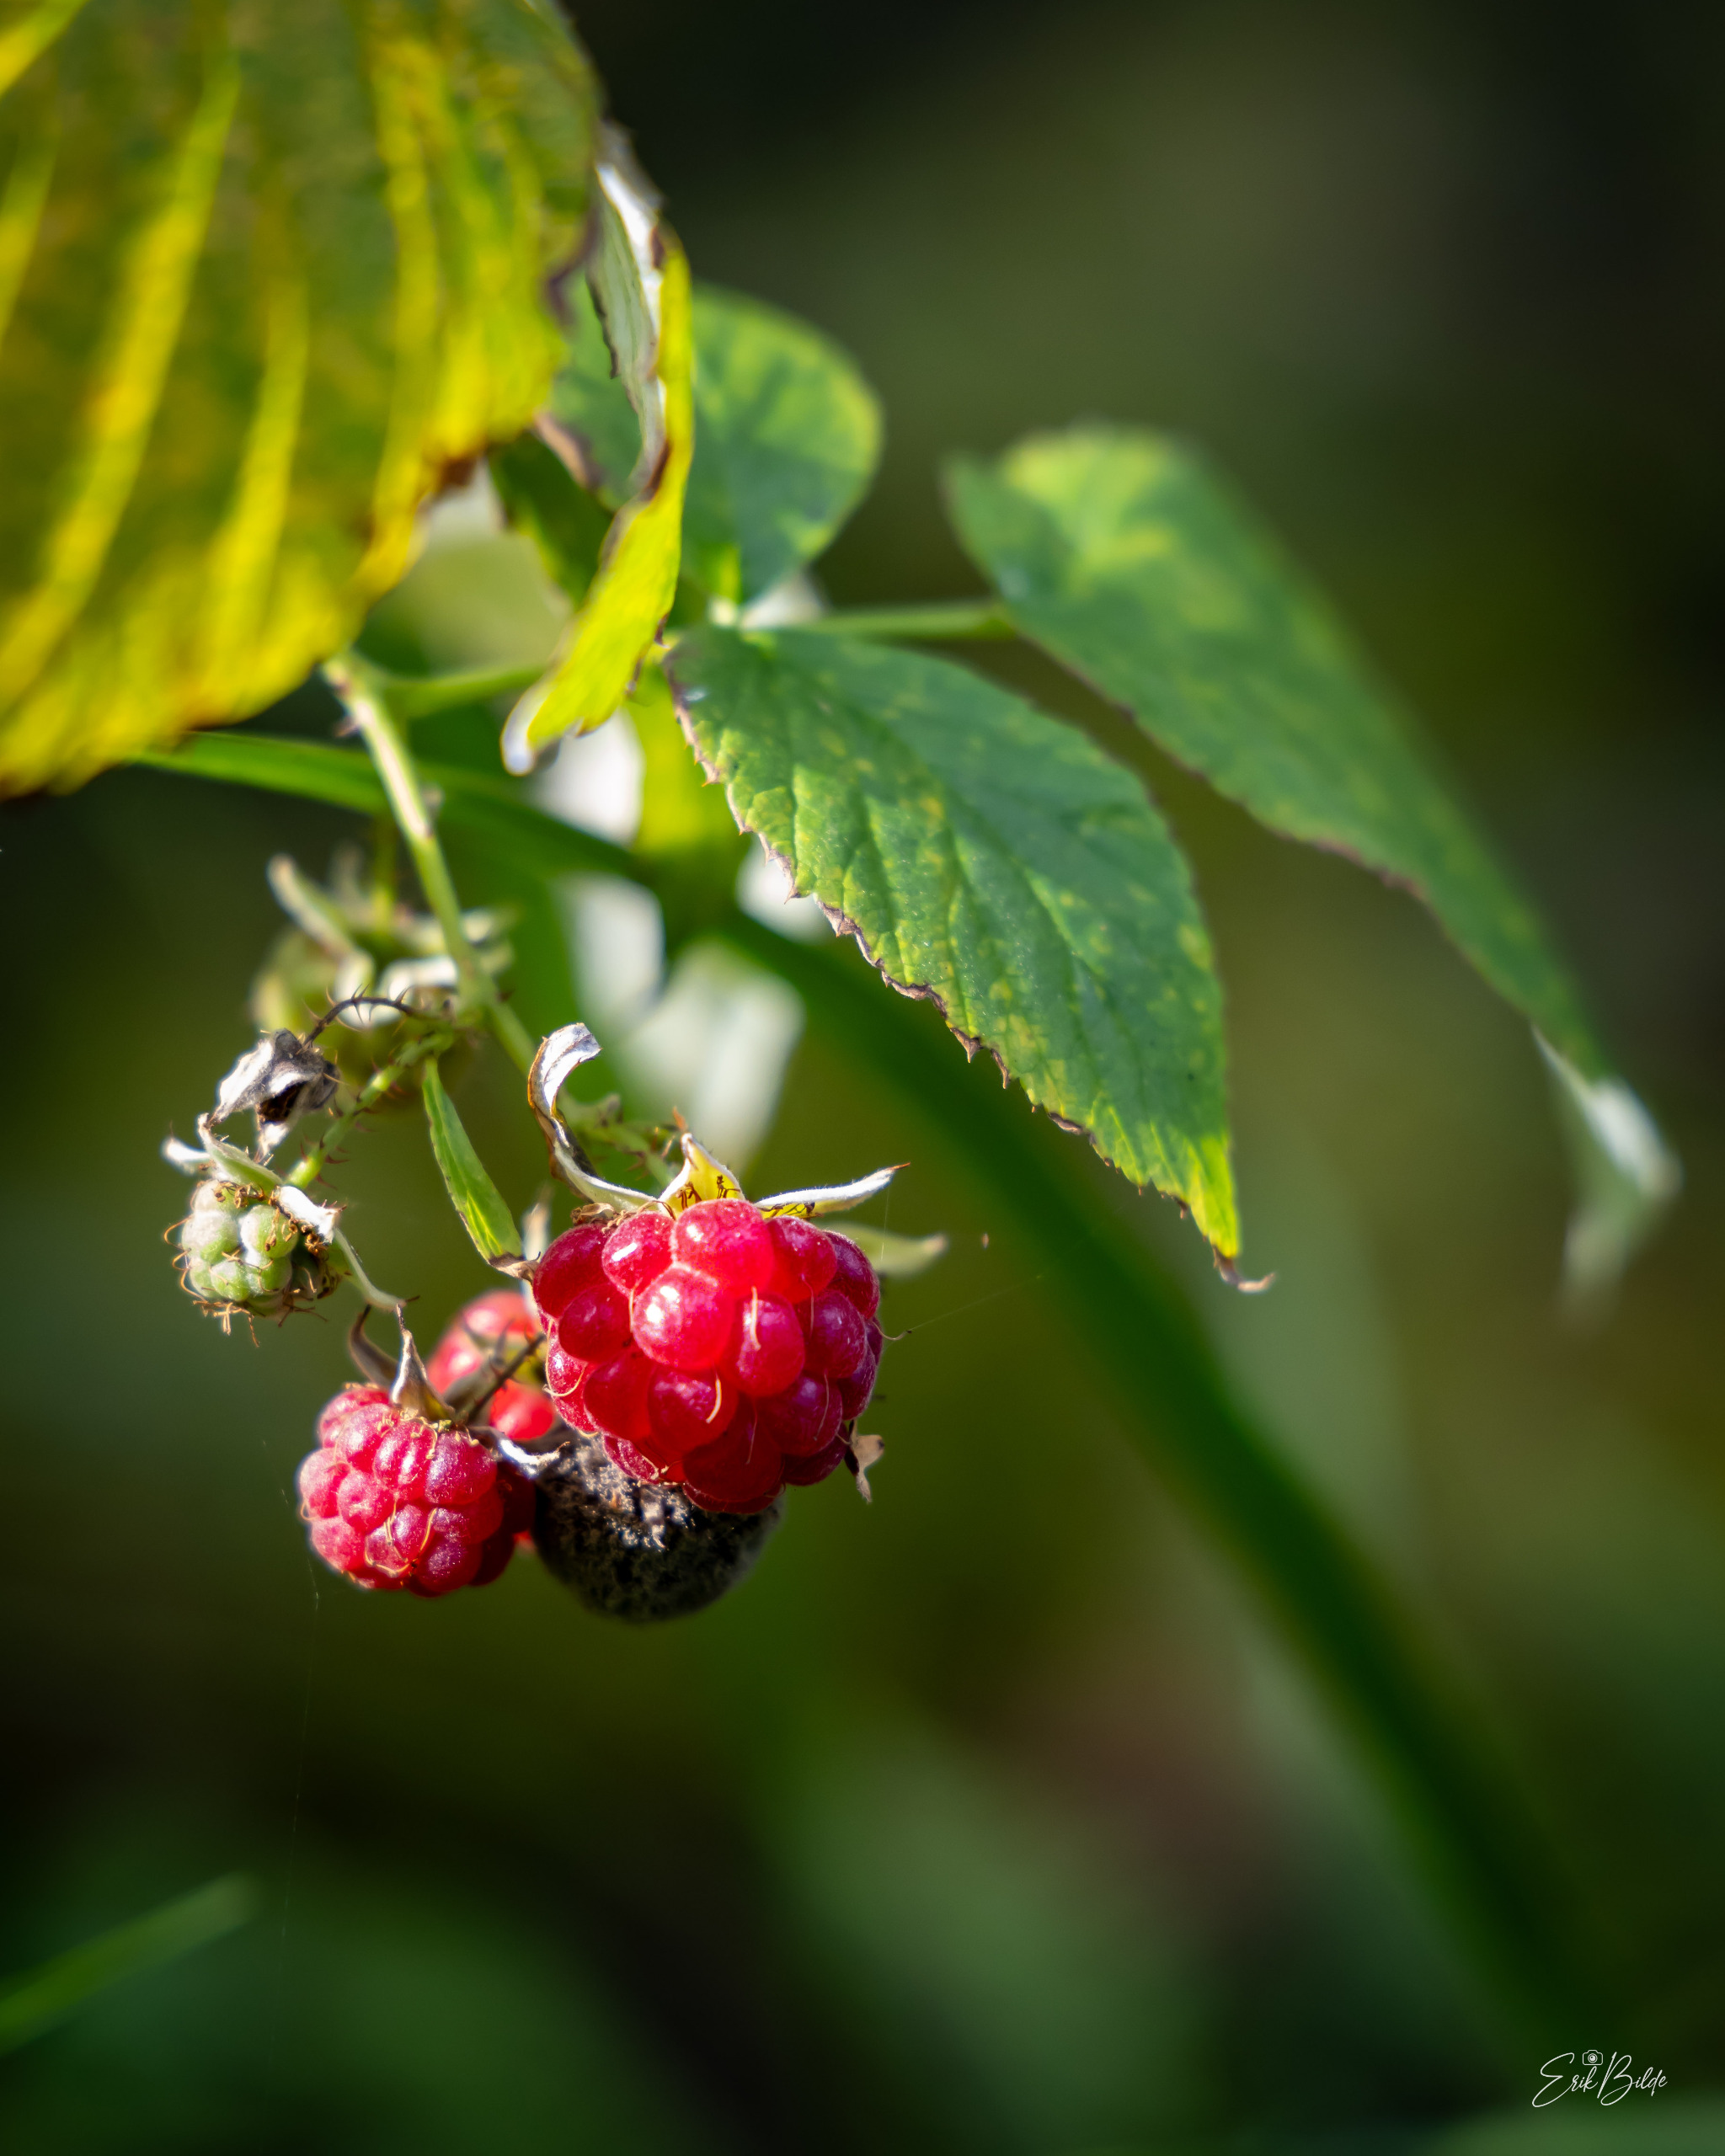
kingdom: Plantae
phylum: Tracheophyta
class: Magnoliopsida
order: Rosales
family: Rosaceae
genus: Rubus
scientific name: Rubus idaeus
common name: Hindbær
